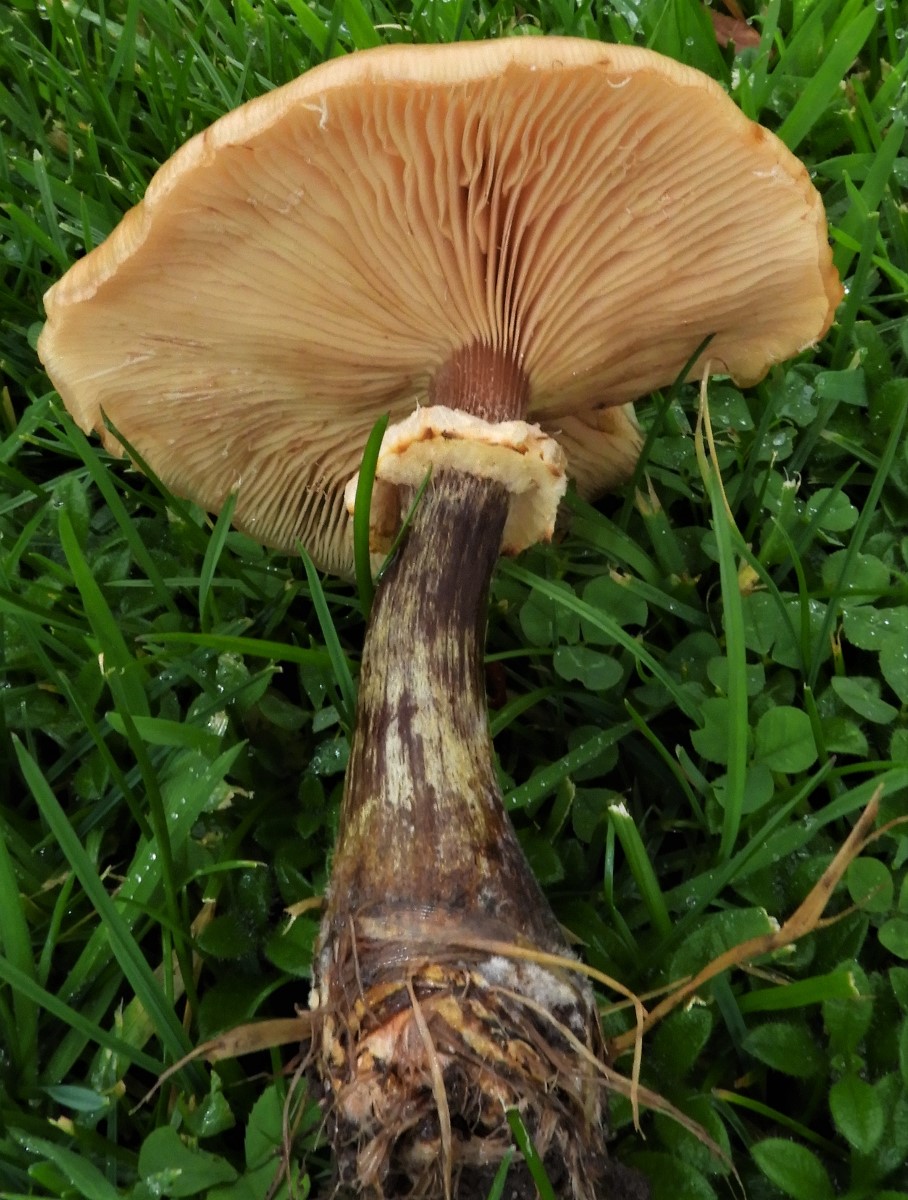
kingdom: Fungi
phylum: Basidiomycota
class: Agaricomycetes
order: Agaricales
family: Physalacriaceae
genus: Armillaria
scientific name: Armillaria lutea
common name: køllestokket honningsvamp
